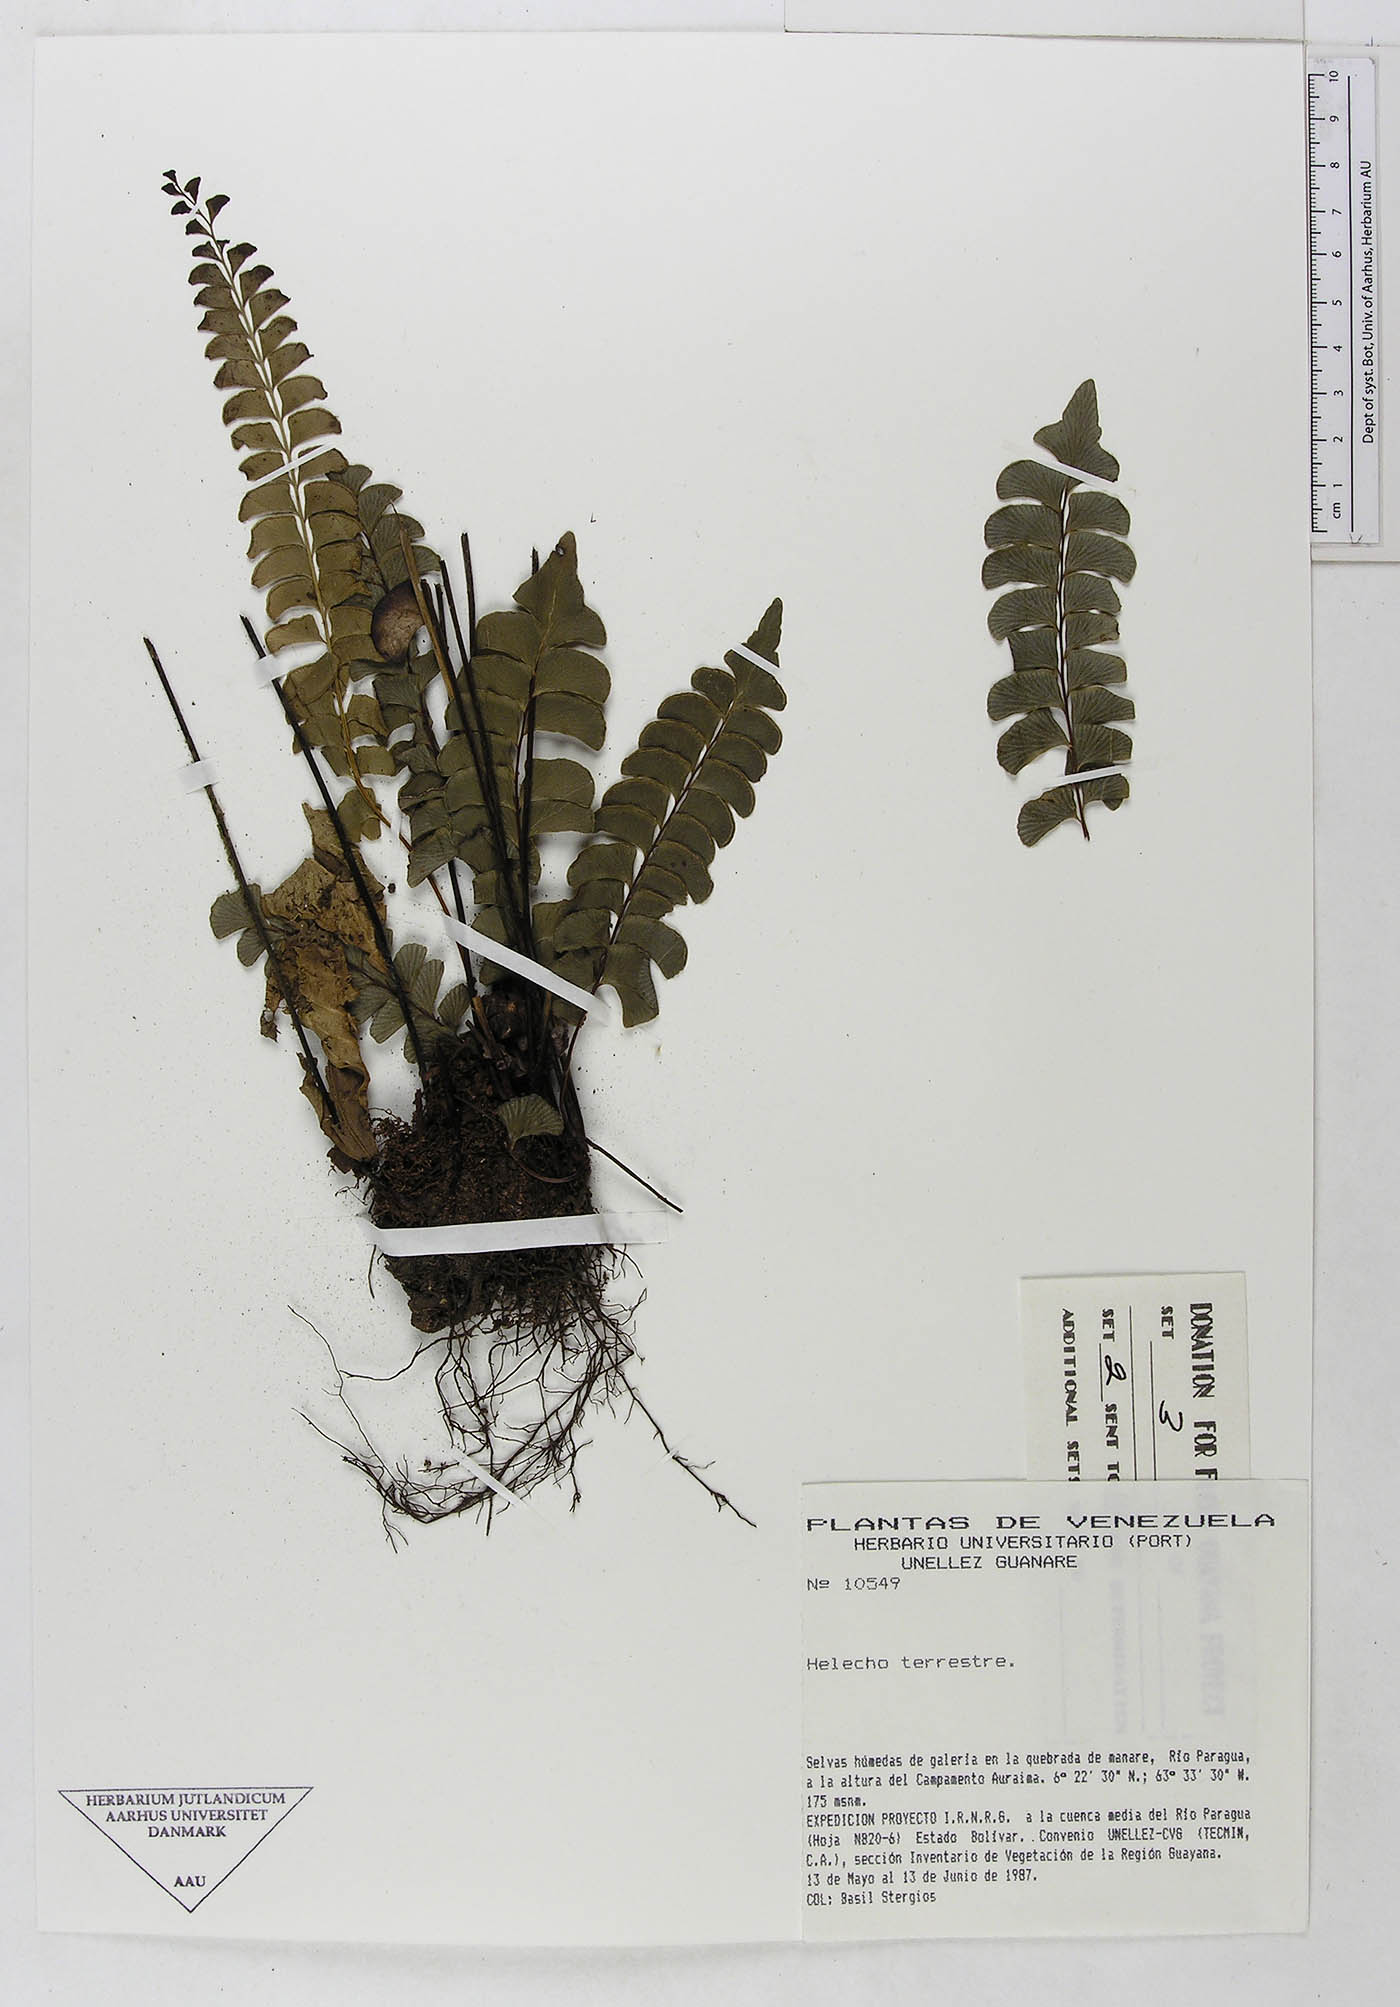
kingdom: Plantae
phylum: Tracheophyta
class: Polypodiopsida
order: Polypodiales
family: Dennstaedtiaceae
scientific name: Dennstaedtiaceae
